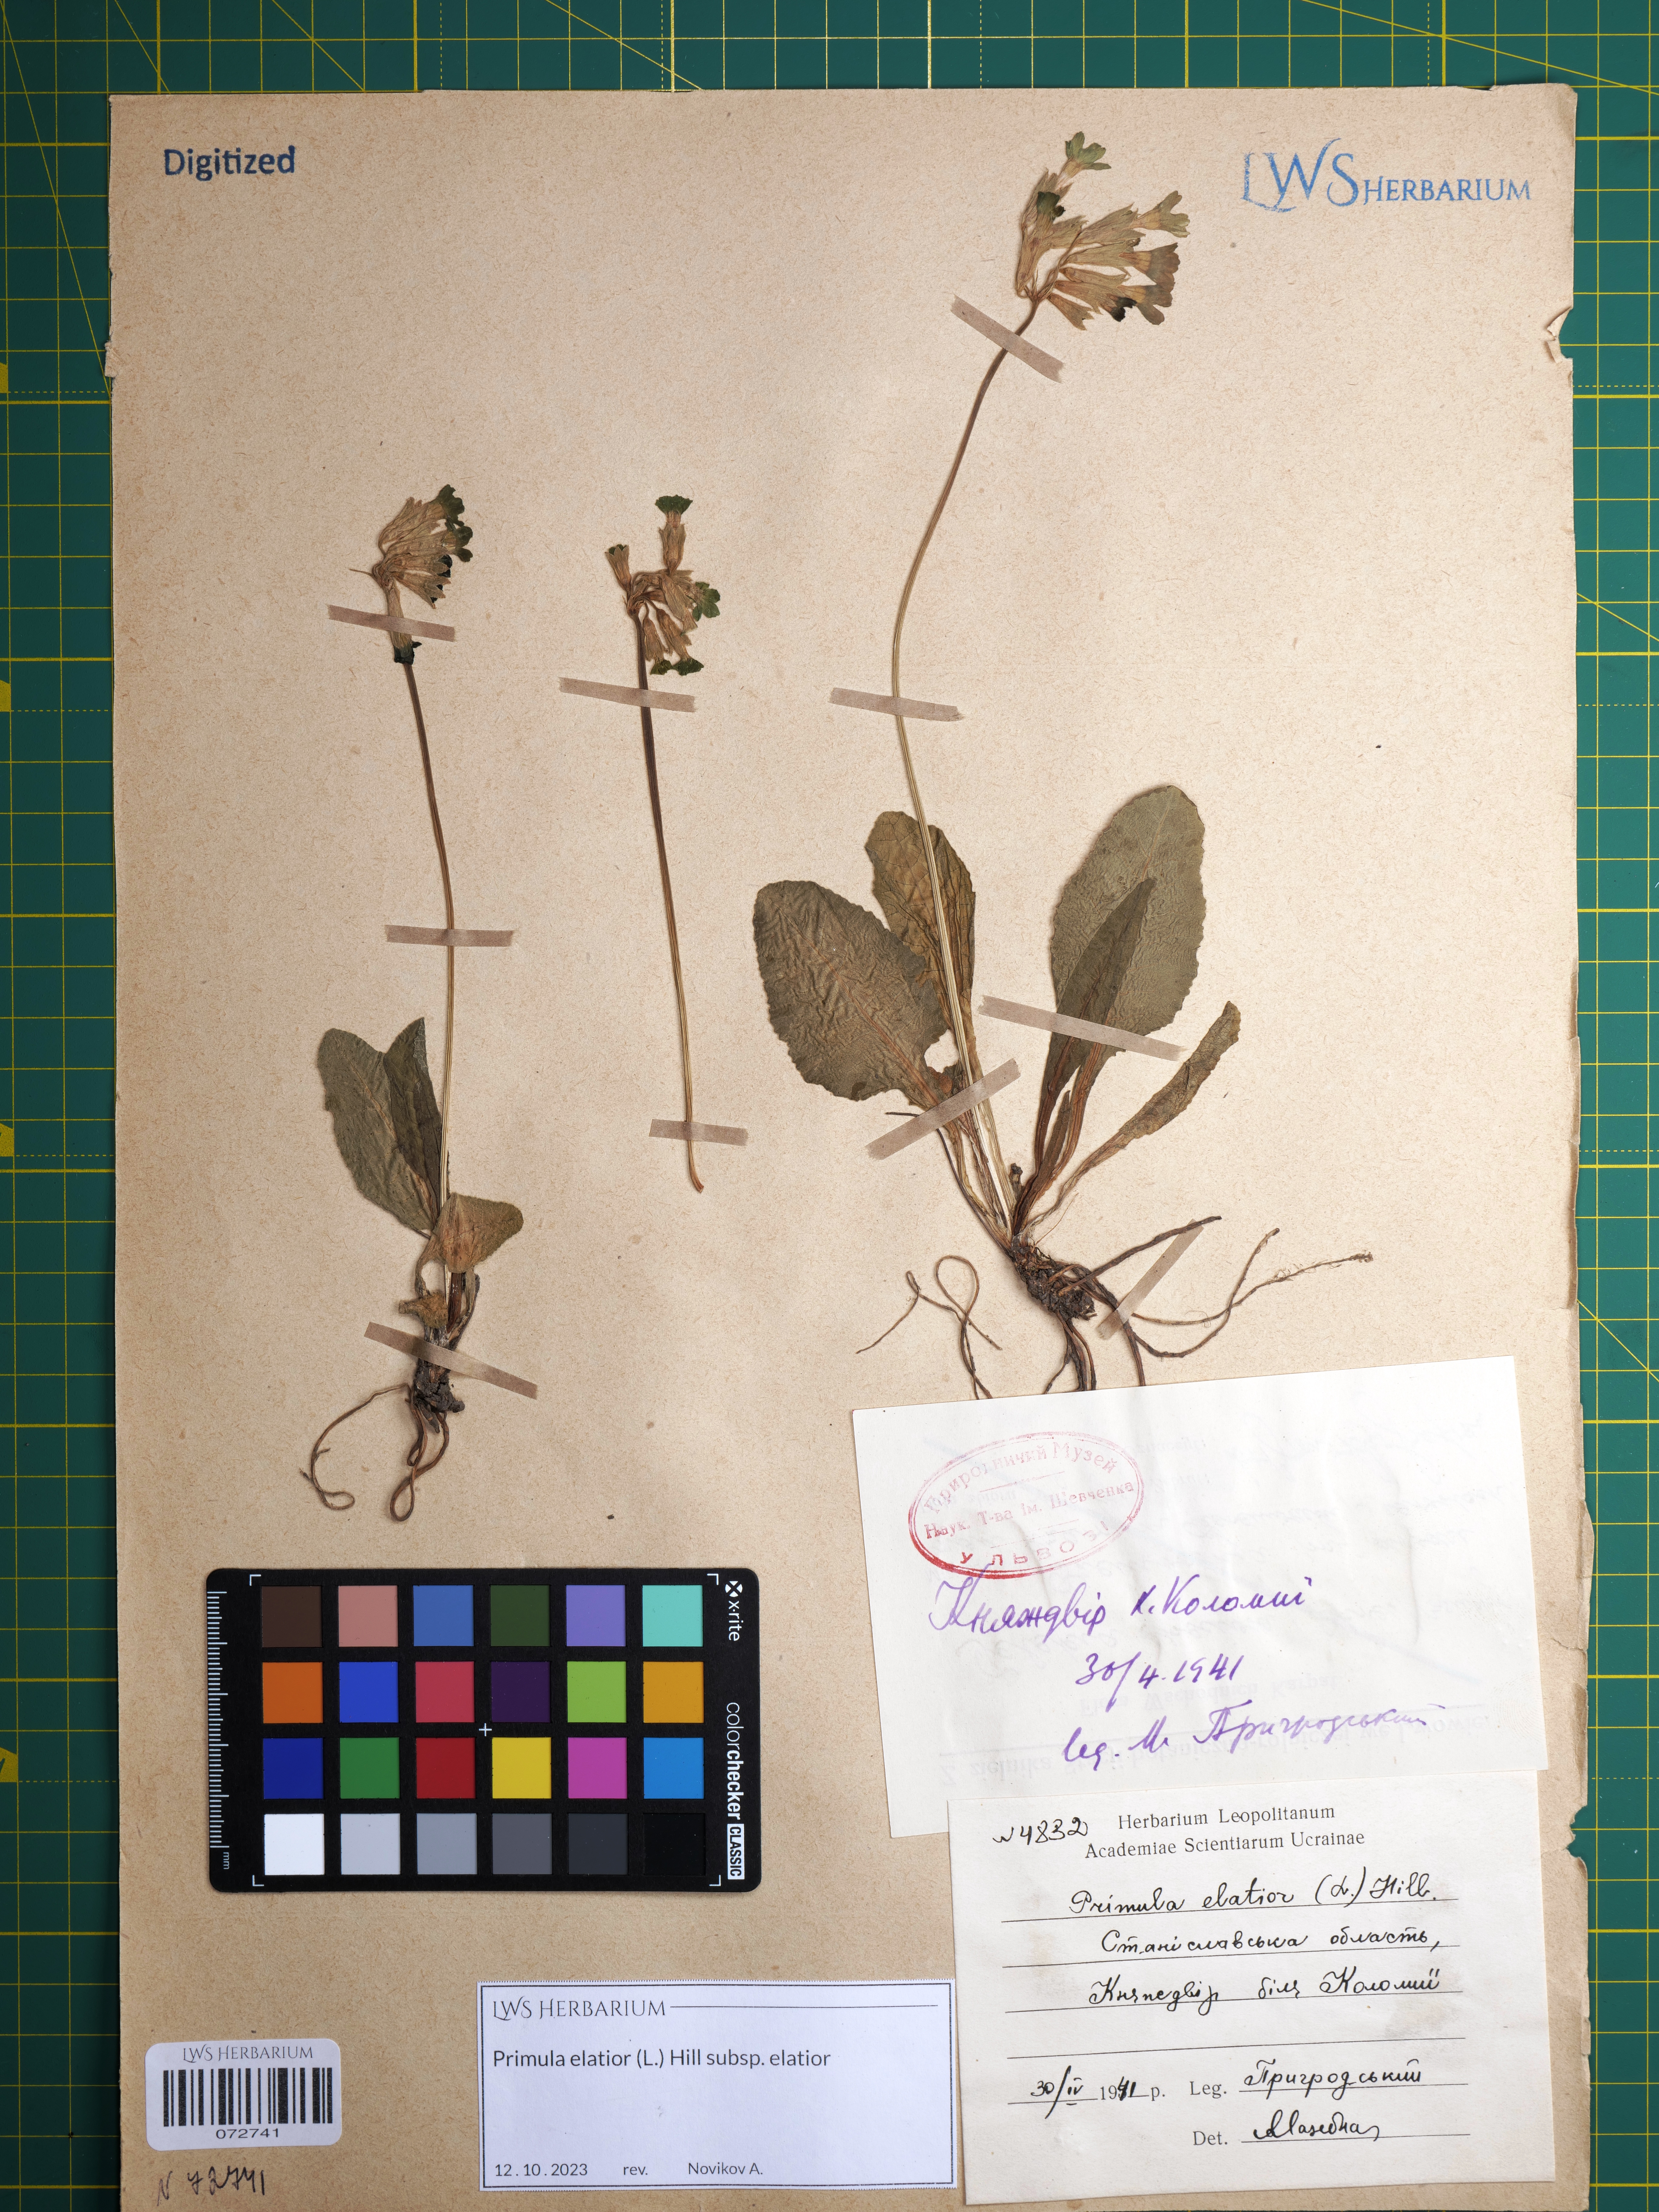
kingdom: Plantae
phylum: Tracheophyta
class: Magnoliopsida
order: Ericales
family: Primulaceae
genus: Primula
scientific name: Primula elatior
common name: Oxlip
